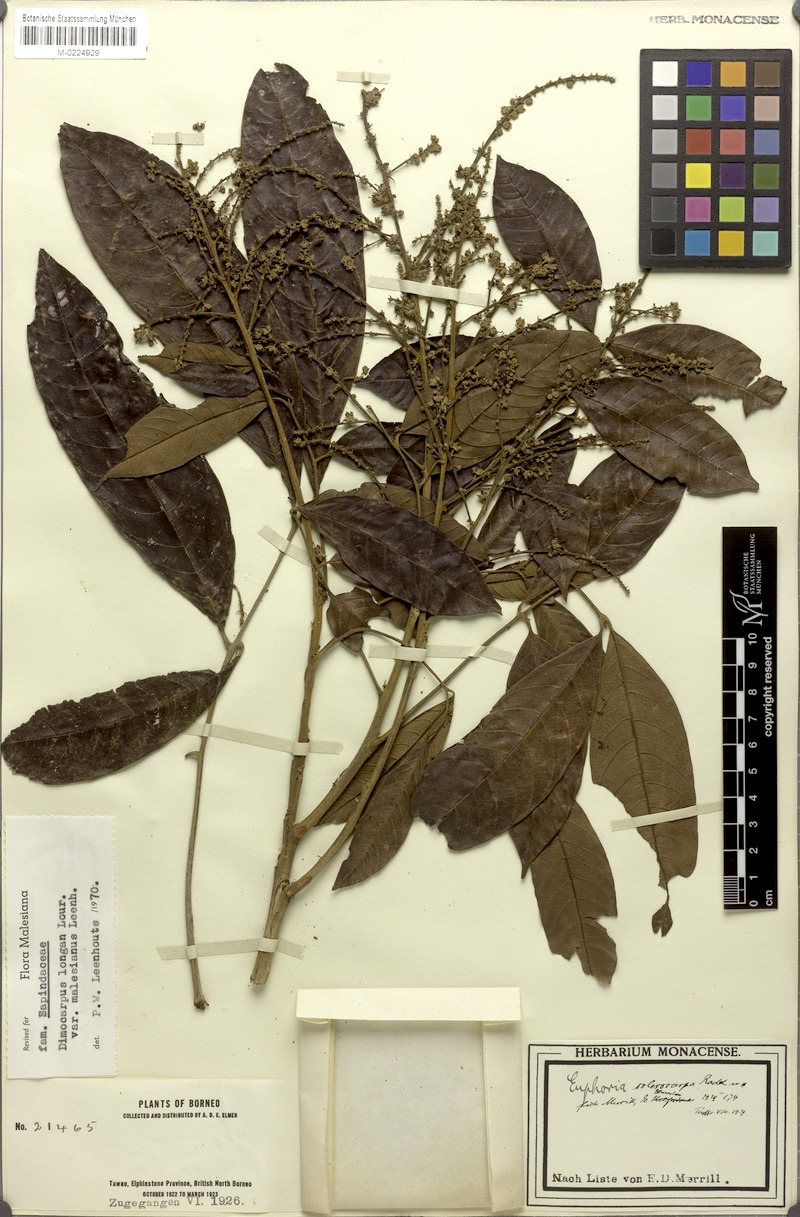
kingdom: Plantae
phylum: Tracheophyta
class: Magnoliopsida
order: Sapindales
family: Sapindaceae
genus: Litchi
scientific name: Litchi Euphoria sclerocarpa
